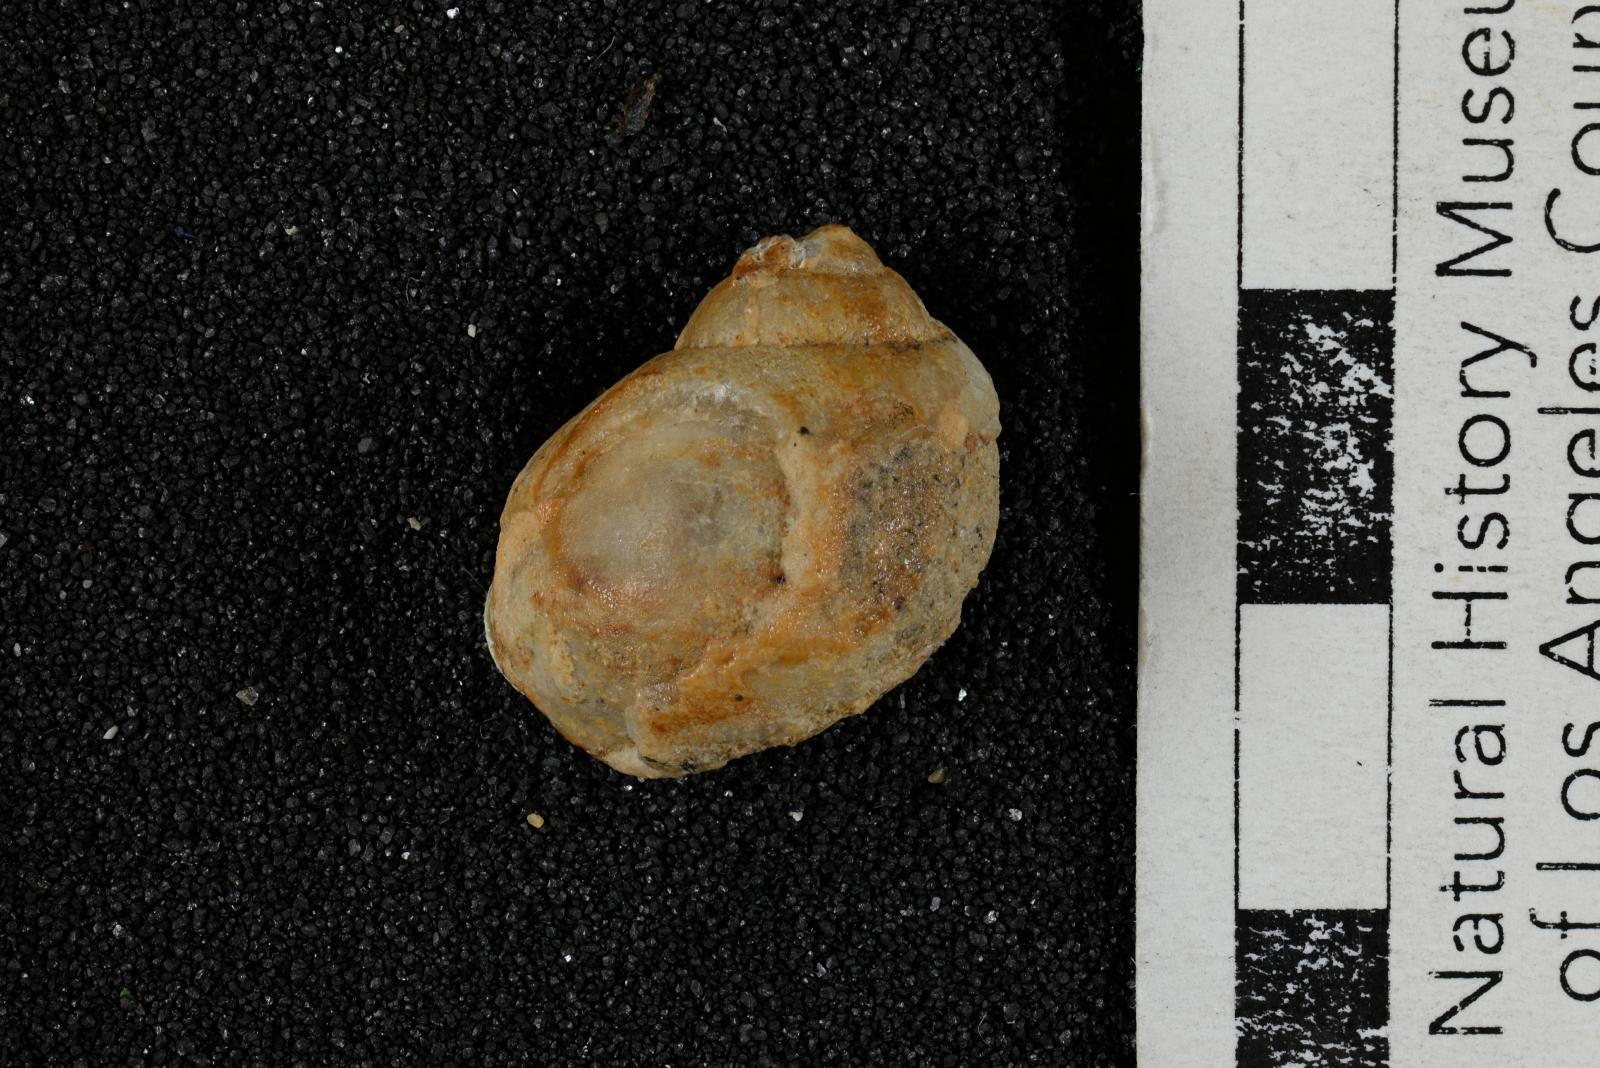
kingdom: Animalia
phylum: Mollusca
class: Gastropoda
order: Littorinimorpha
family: Naticidae
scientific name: Naticidae
